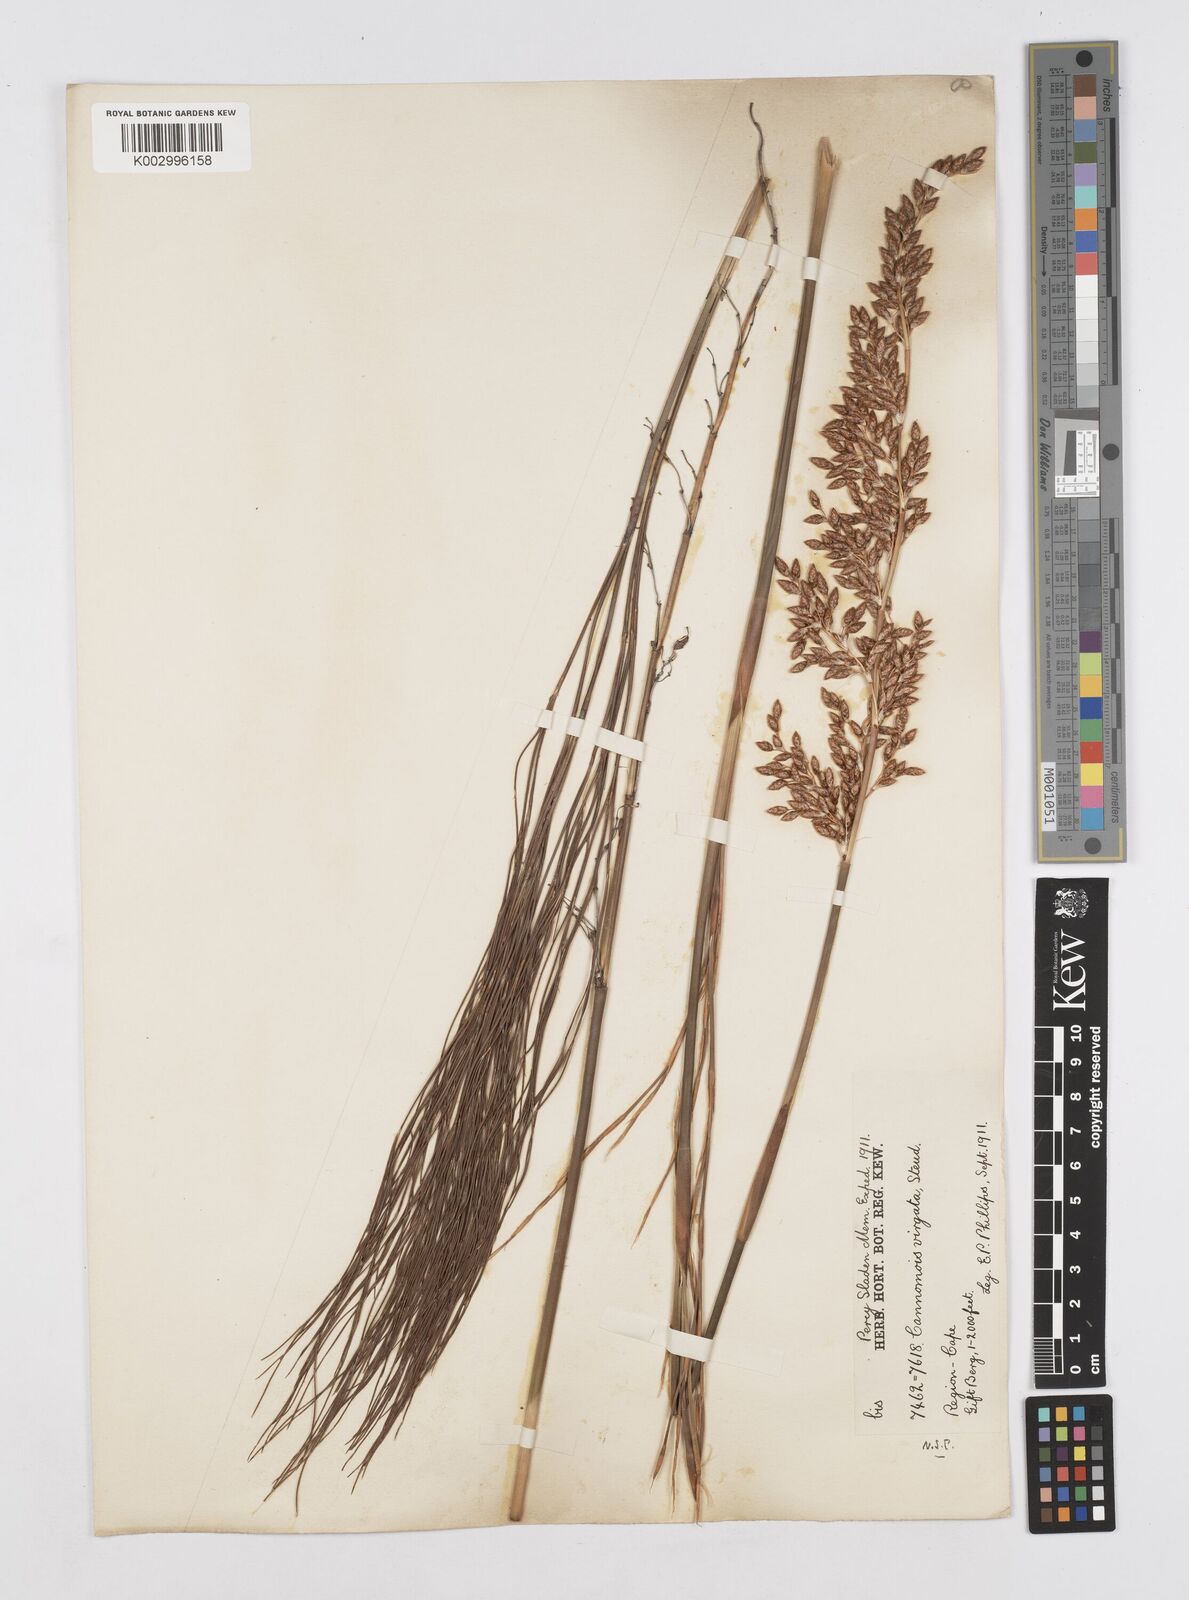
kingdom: Plantae
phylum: Tracheophyta
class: Liliopsida
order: Poales
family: Restionaceae
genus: Cannomois
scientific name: Cannomois virgata
